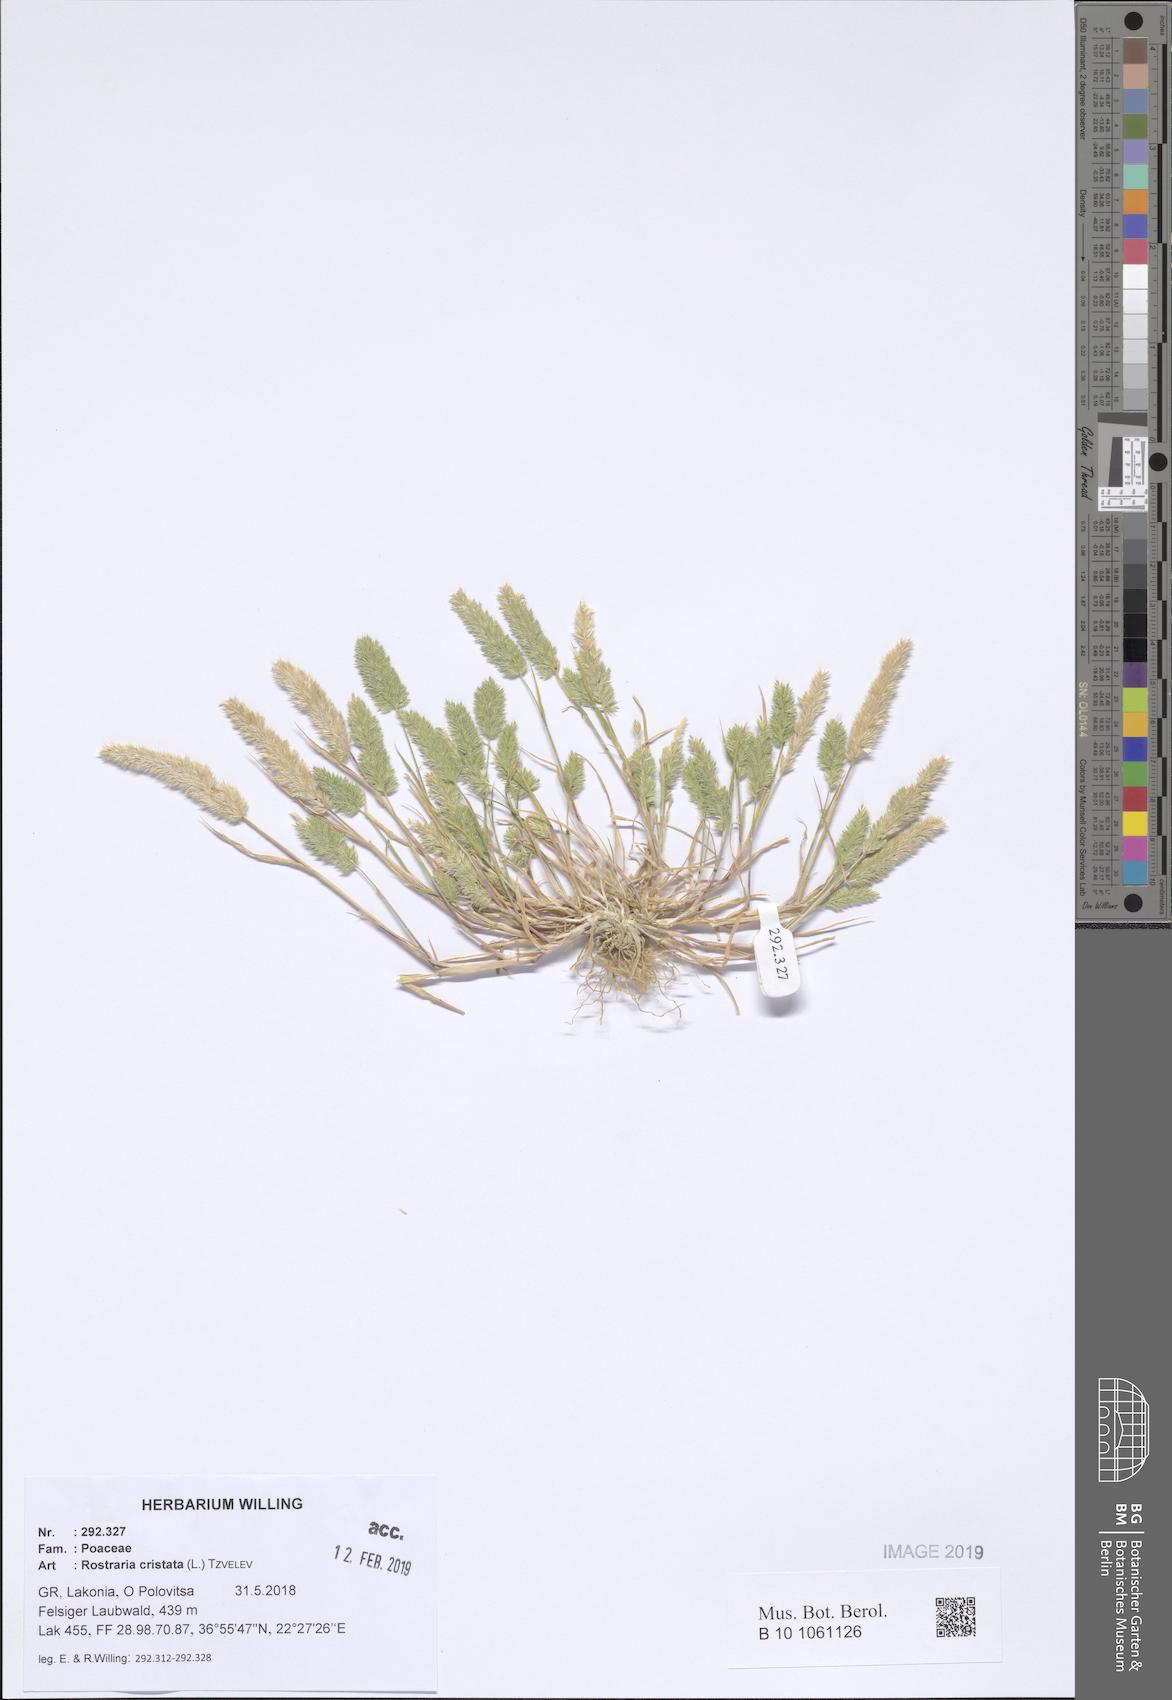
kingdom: Plantae
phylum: Tracheophyta
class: Liliopsida
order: Poales
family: Poaceae
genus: Rostraria
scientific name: Rostraria cristata
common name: Mediterranean hair-grass
